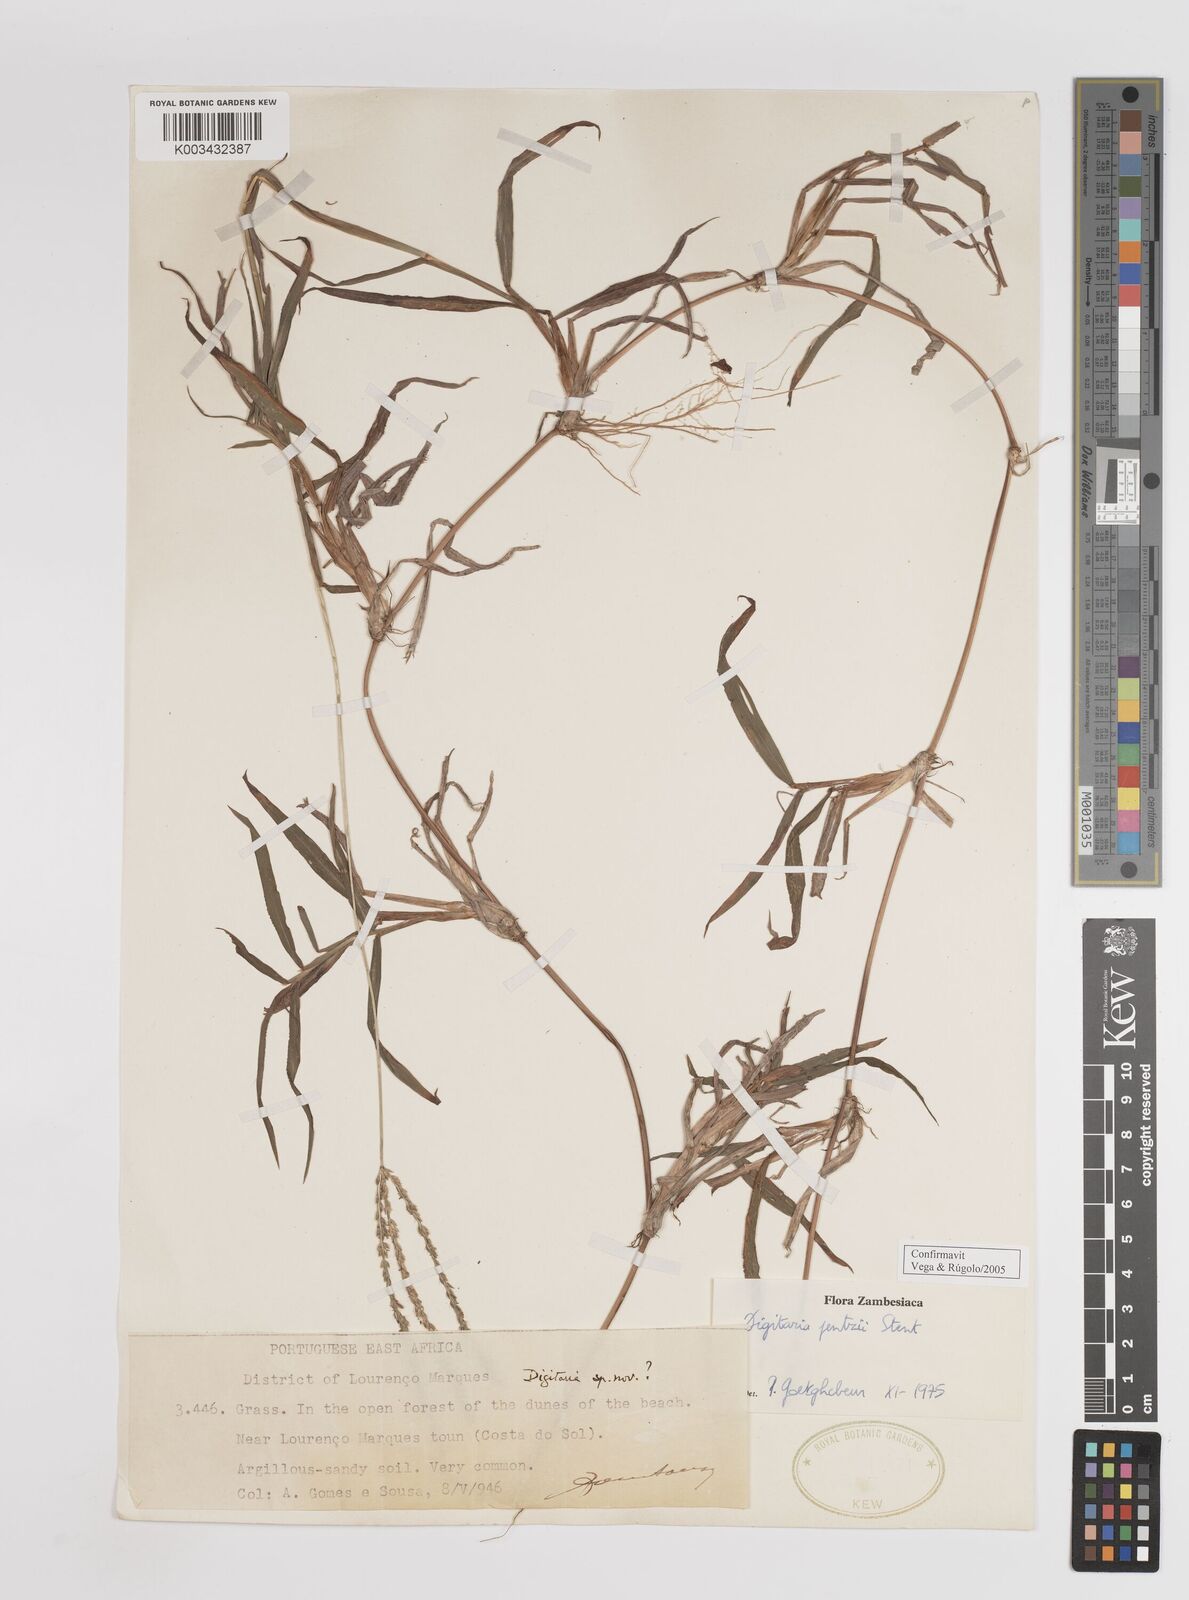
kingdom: Plantae
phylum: Tracheophyta
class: Liliopsida
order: Poales
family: Poaceae
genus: Digitaria
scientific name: Digitaria eriantha
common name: Digitgrass
